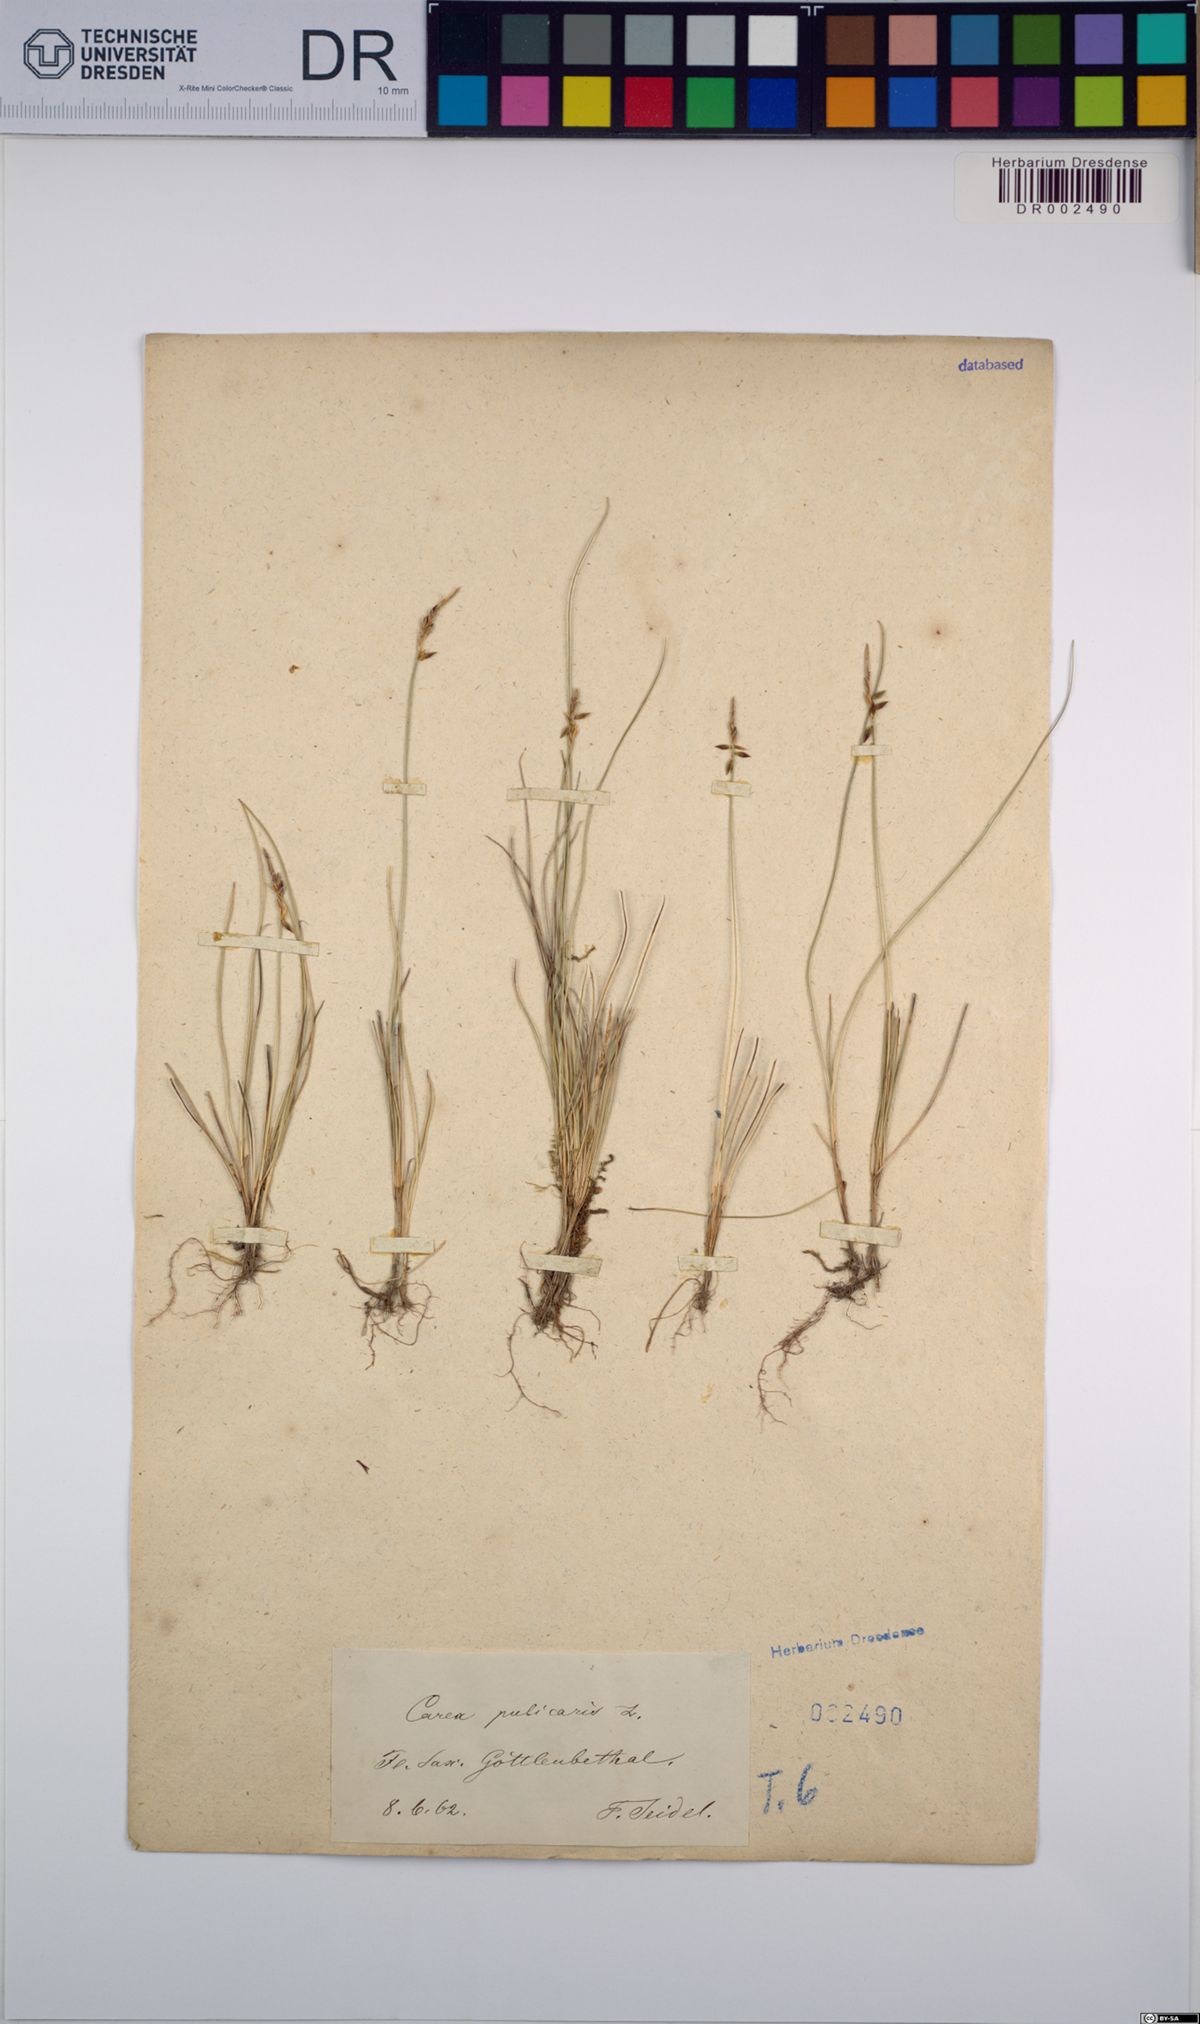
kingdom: Plantae
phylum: Tracheophyta
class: Liliopsida
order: Poales
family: Cyperaceae
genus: Carex
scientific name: Carex pulicaris
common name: Flea sedge
